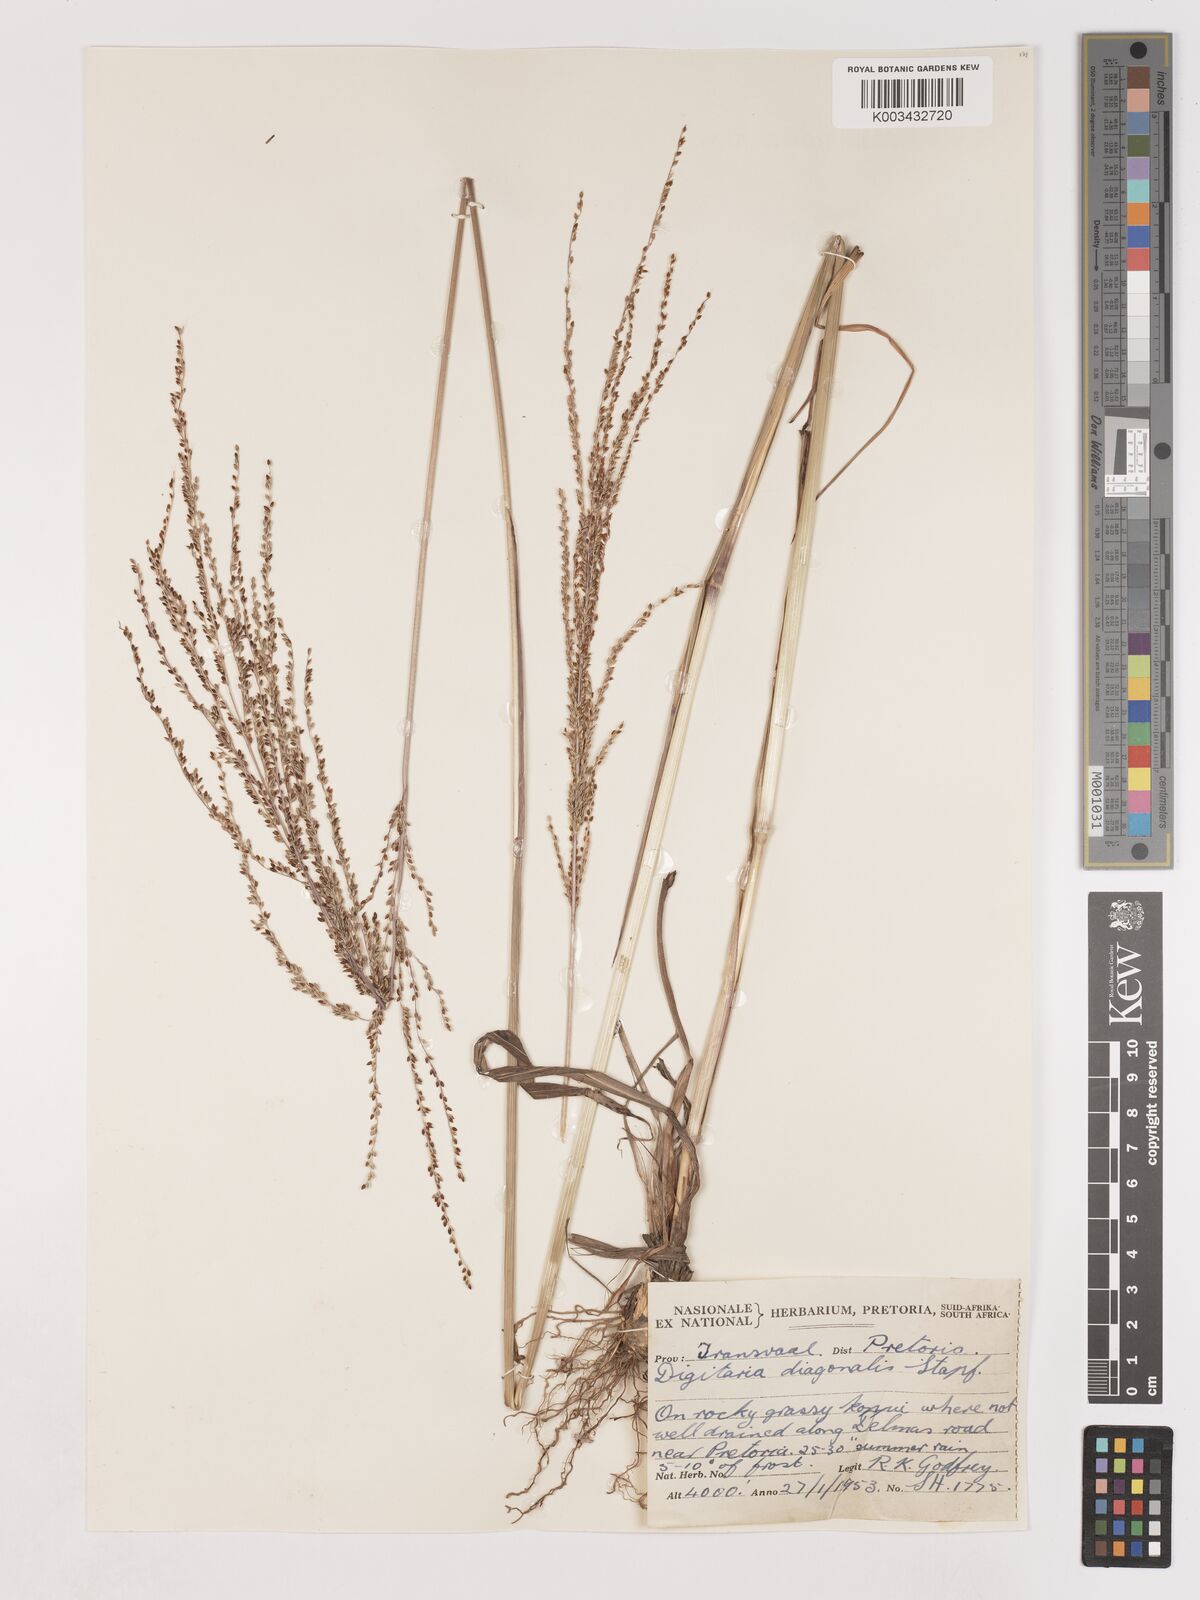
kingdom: Plantae
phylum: Tracheophyta
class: Liliopsida
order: Poales
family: Poaceae
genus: Digitaria
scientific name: Digitaria diagonalis
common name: Brown-seed finger grass
